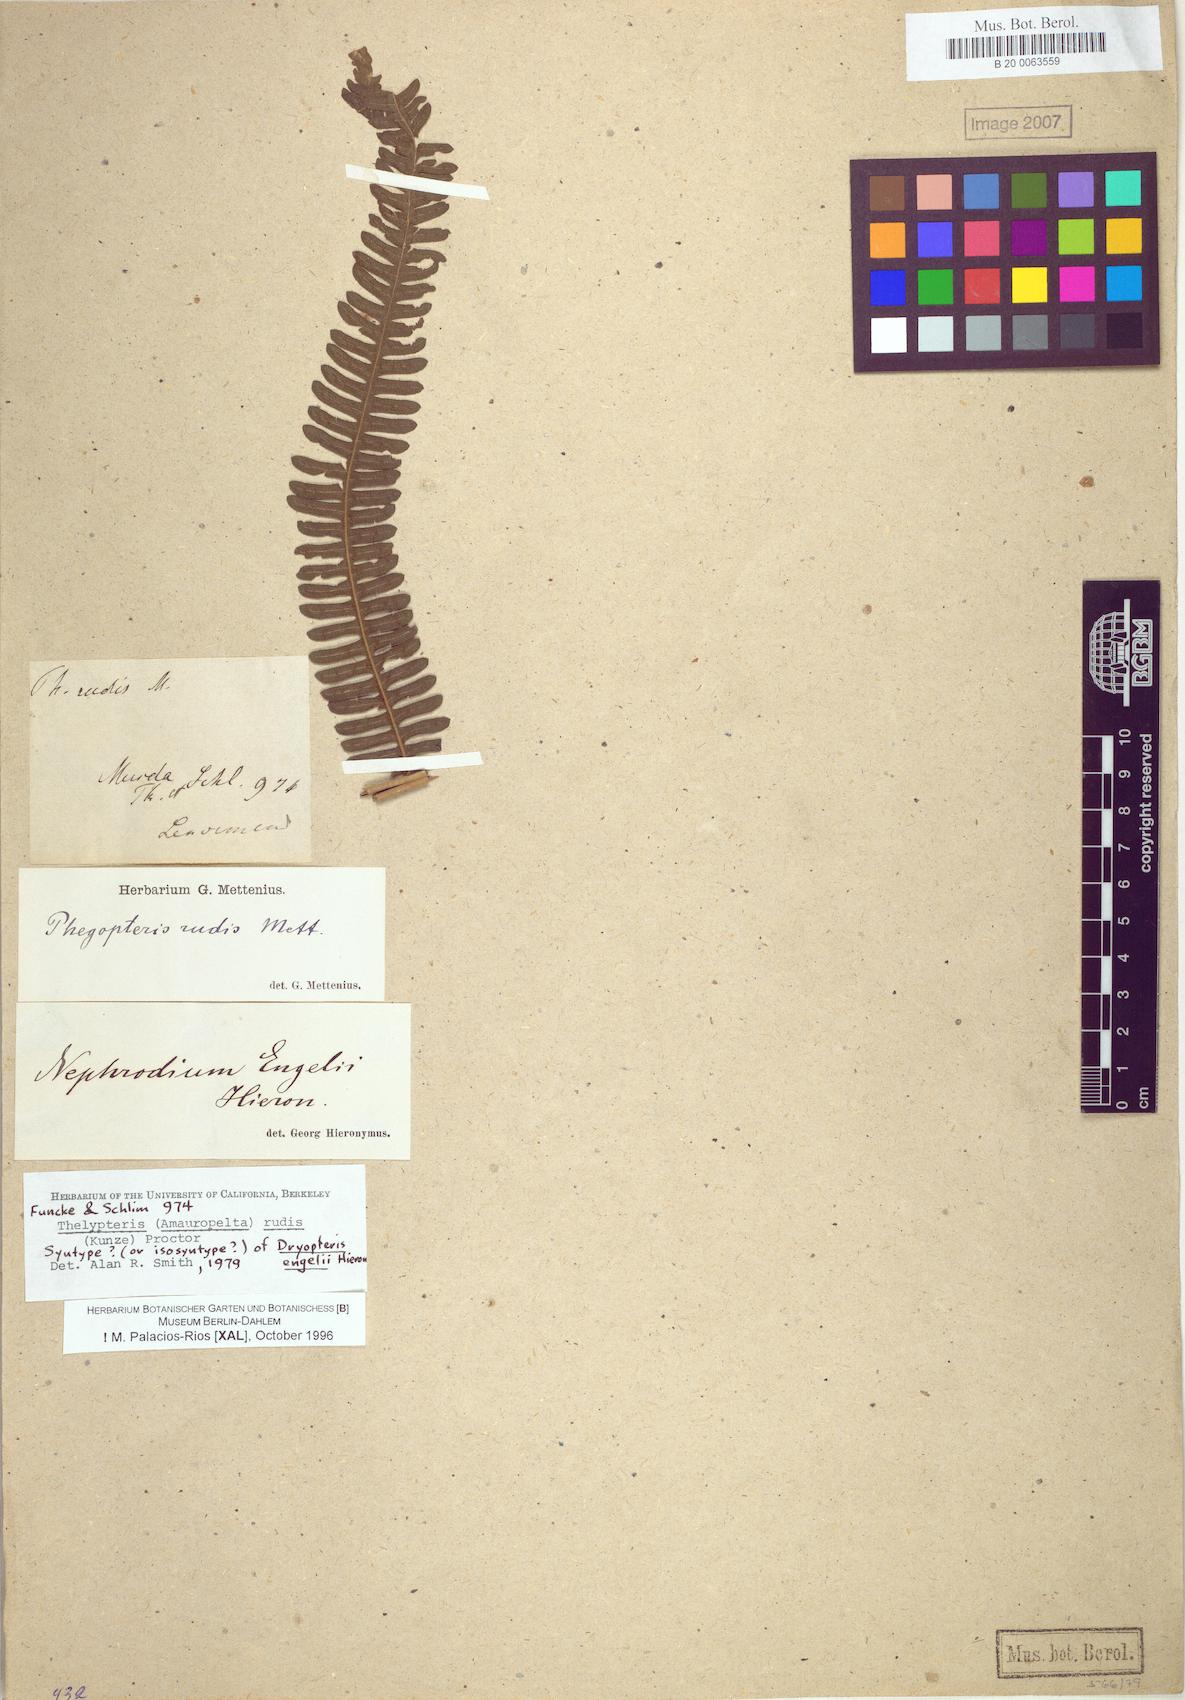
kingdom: Plantae
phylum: Tracheophyta
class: Polypodiopsida
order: Polypodiales
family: Thelypteridaceae
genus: Amauropelta
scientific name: Amauropelta rudis
